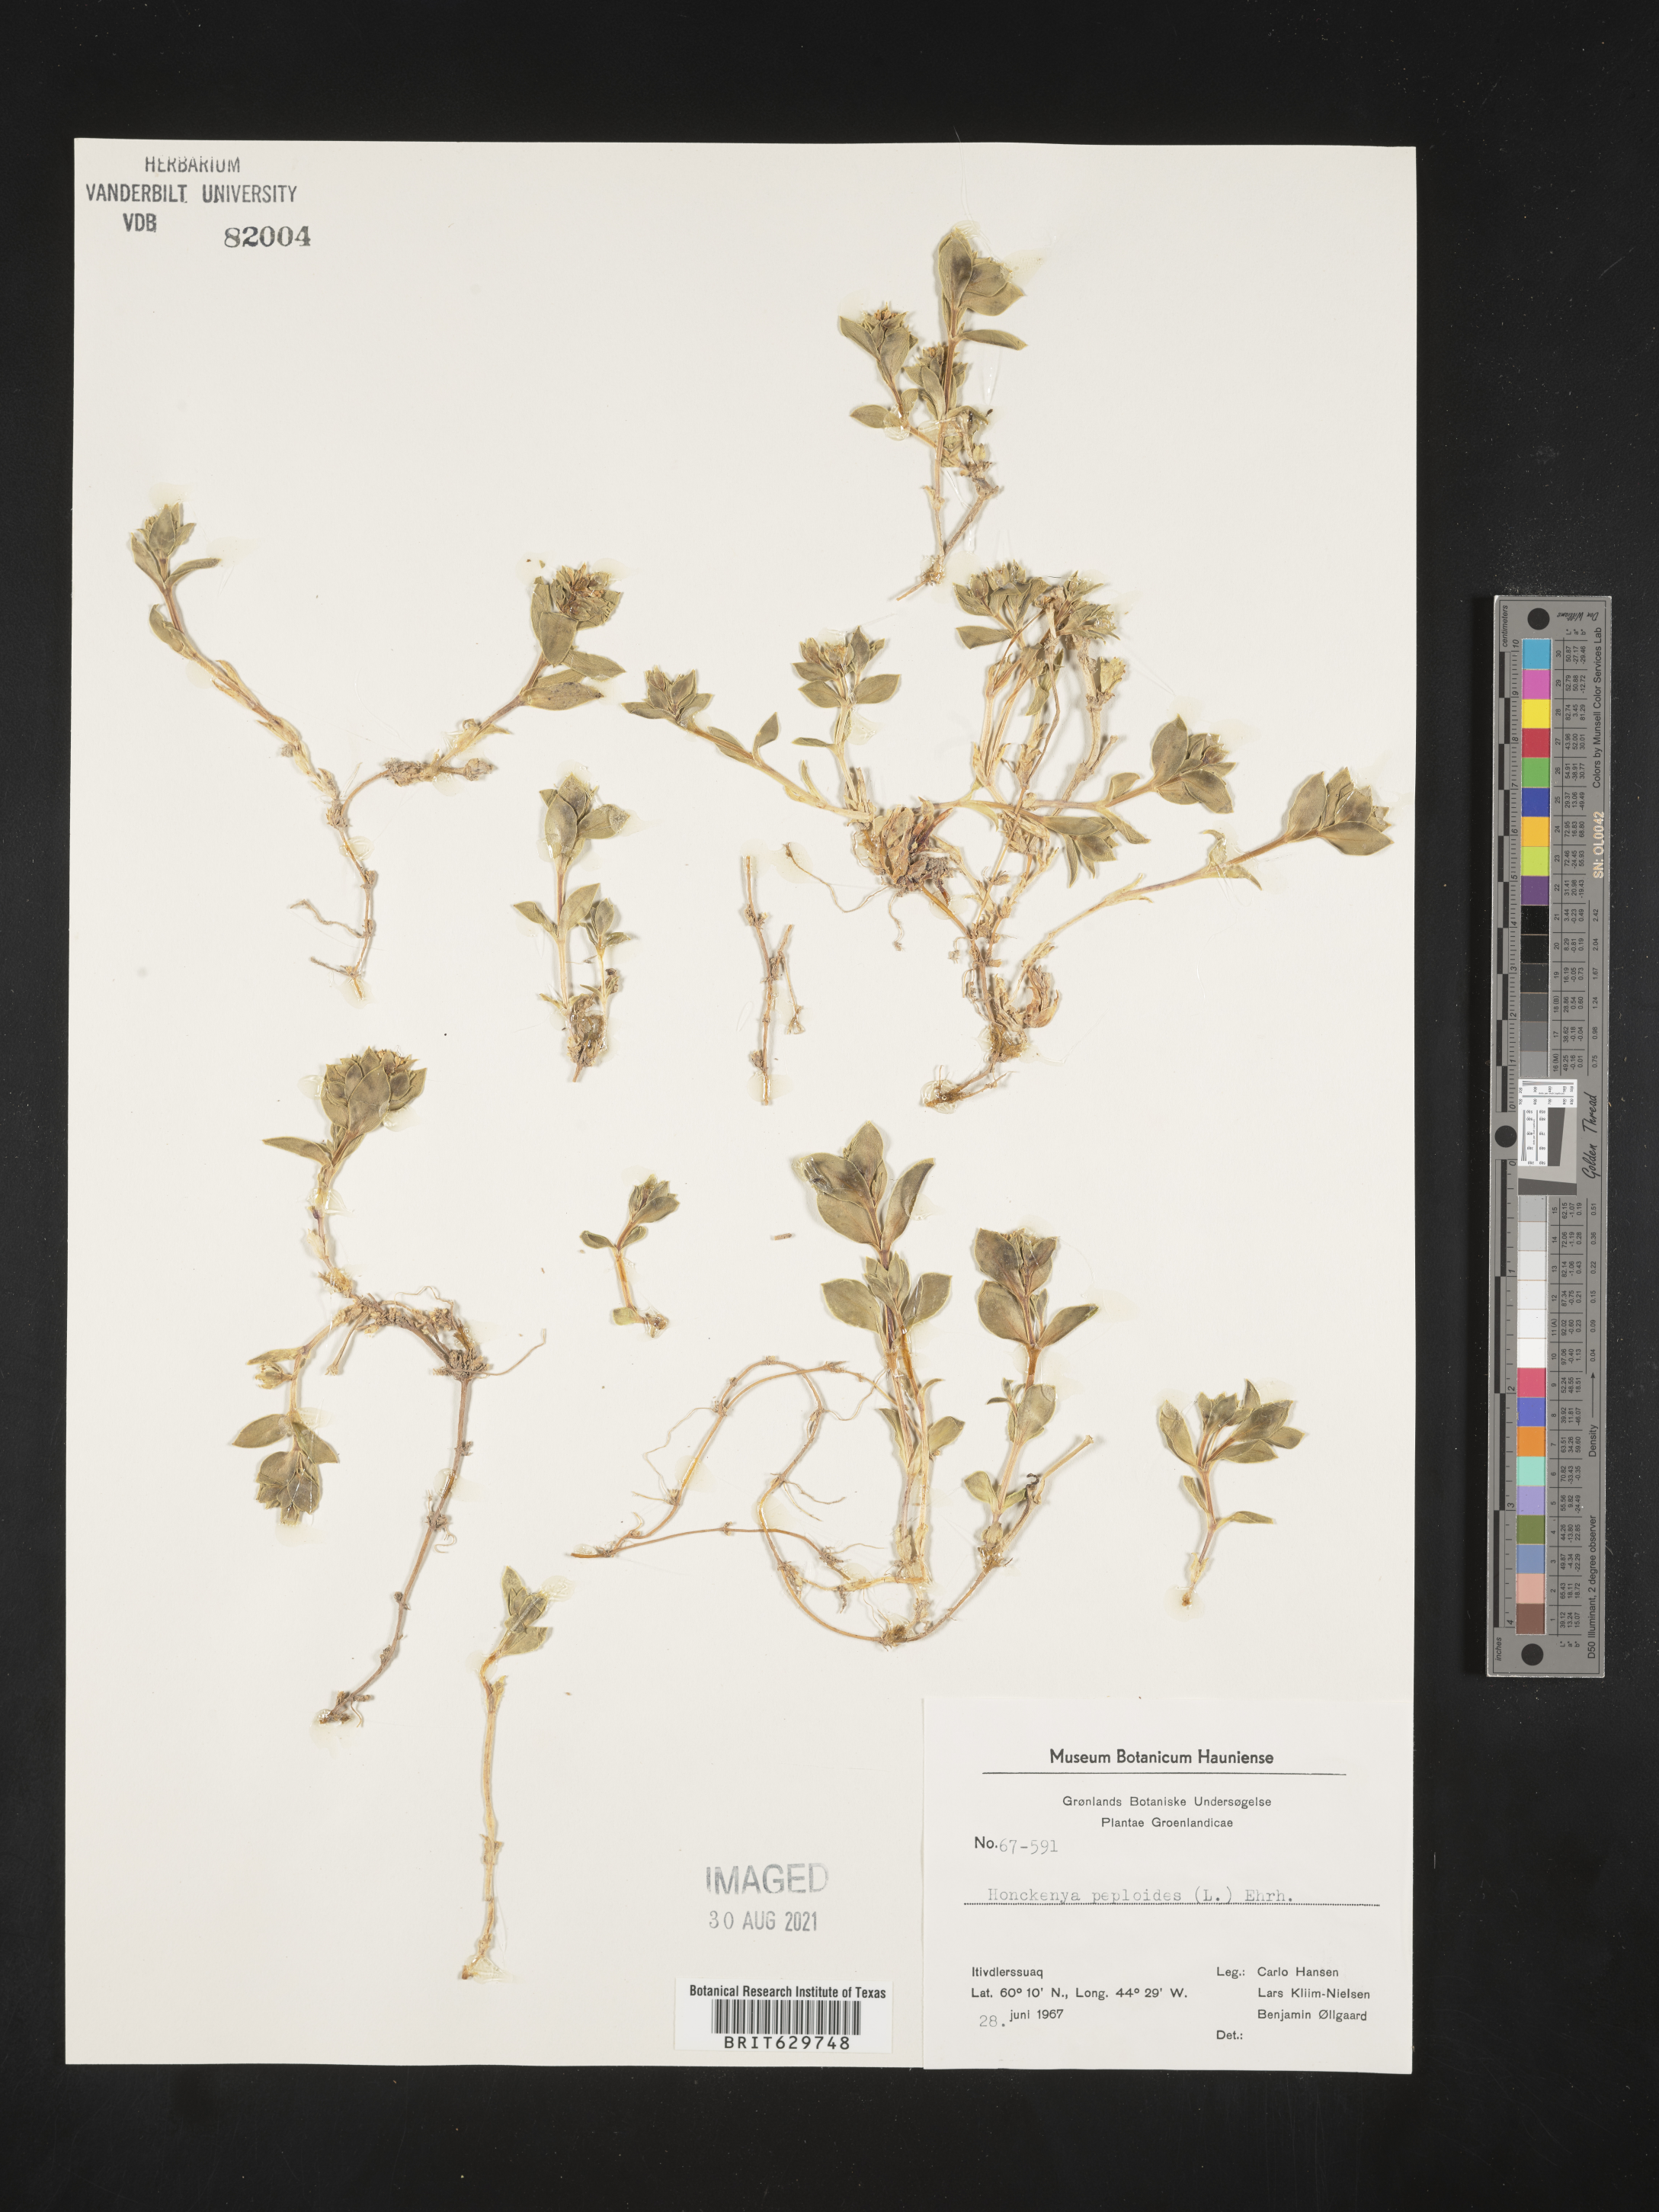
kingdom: Plantae
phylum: Tracheophyta
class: Magnoliopsida
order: Caryophyllales
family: Caryophyllaceae
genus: Honckenya
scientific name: Honckenya peploides
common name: Sea sandwort
